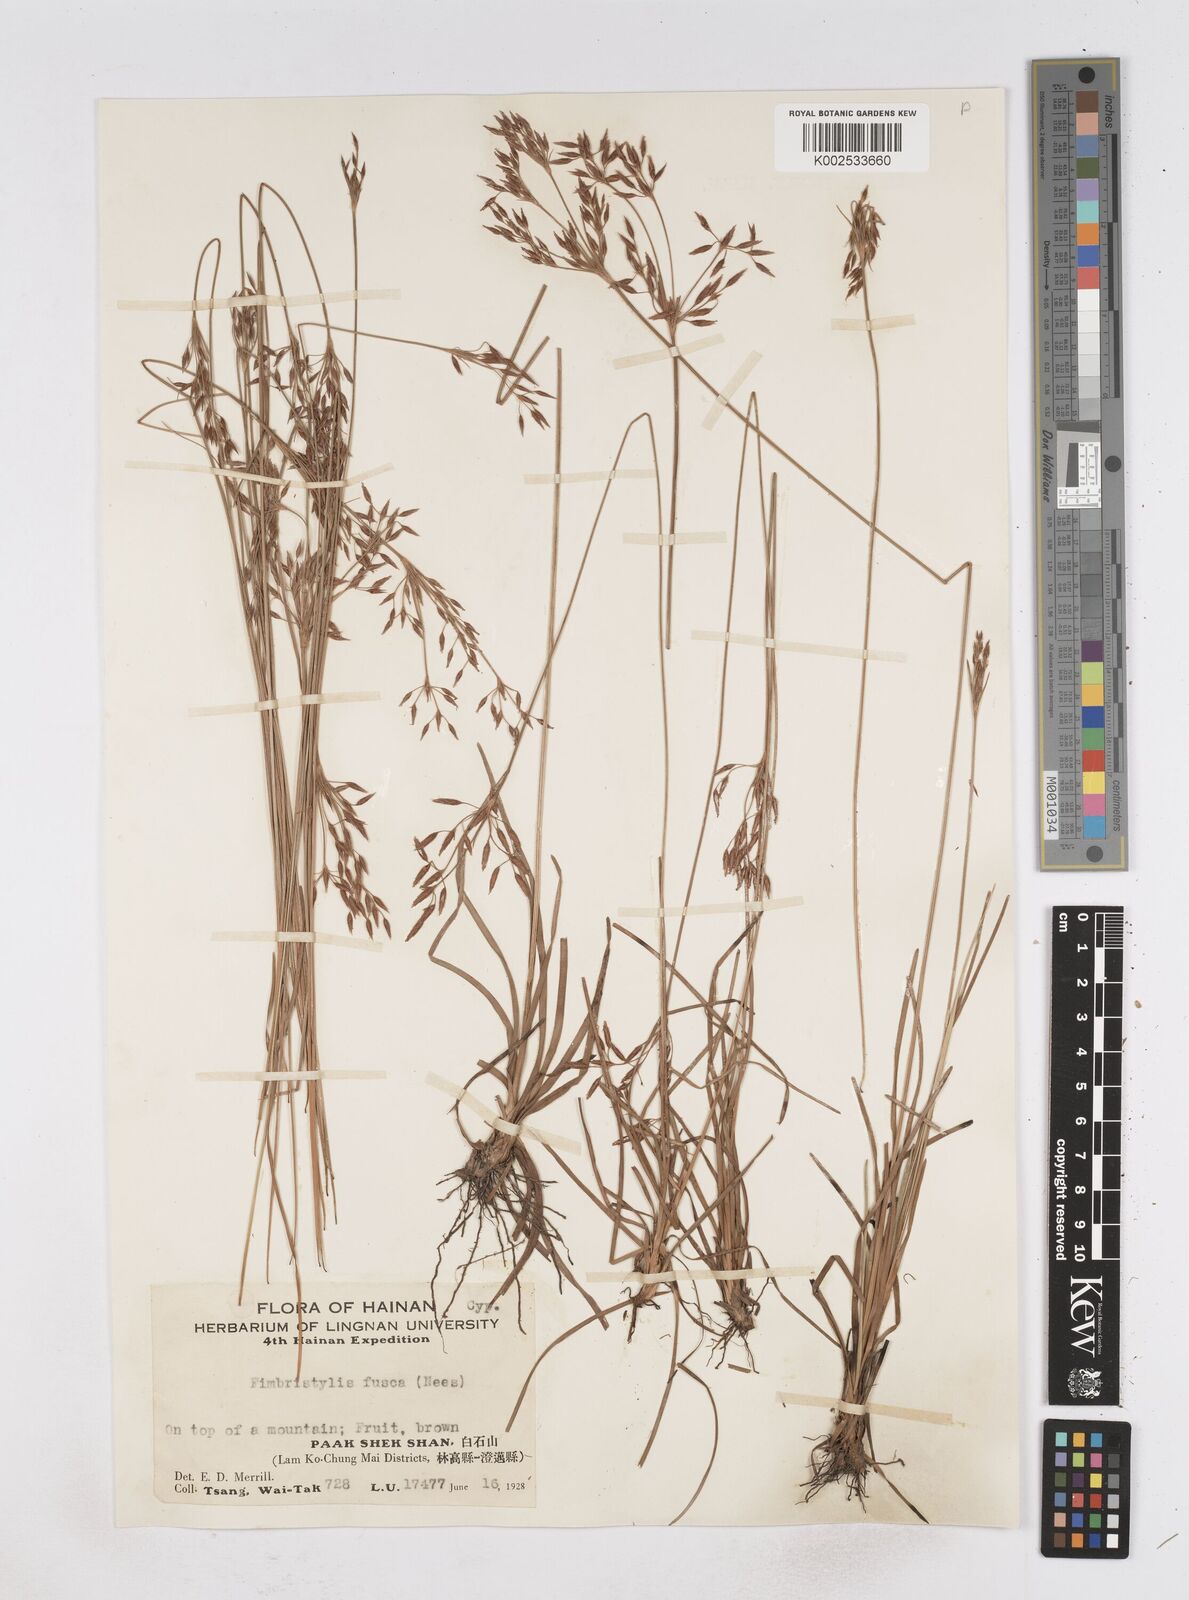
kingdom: Plantae
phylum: Tracheophyta
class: Liliopsida
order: Poales
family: Cyperaceae
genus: Fimbristylis
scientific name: Fimbristylis fusca
